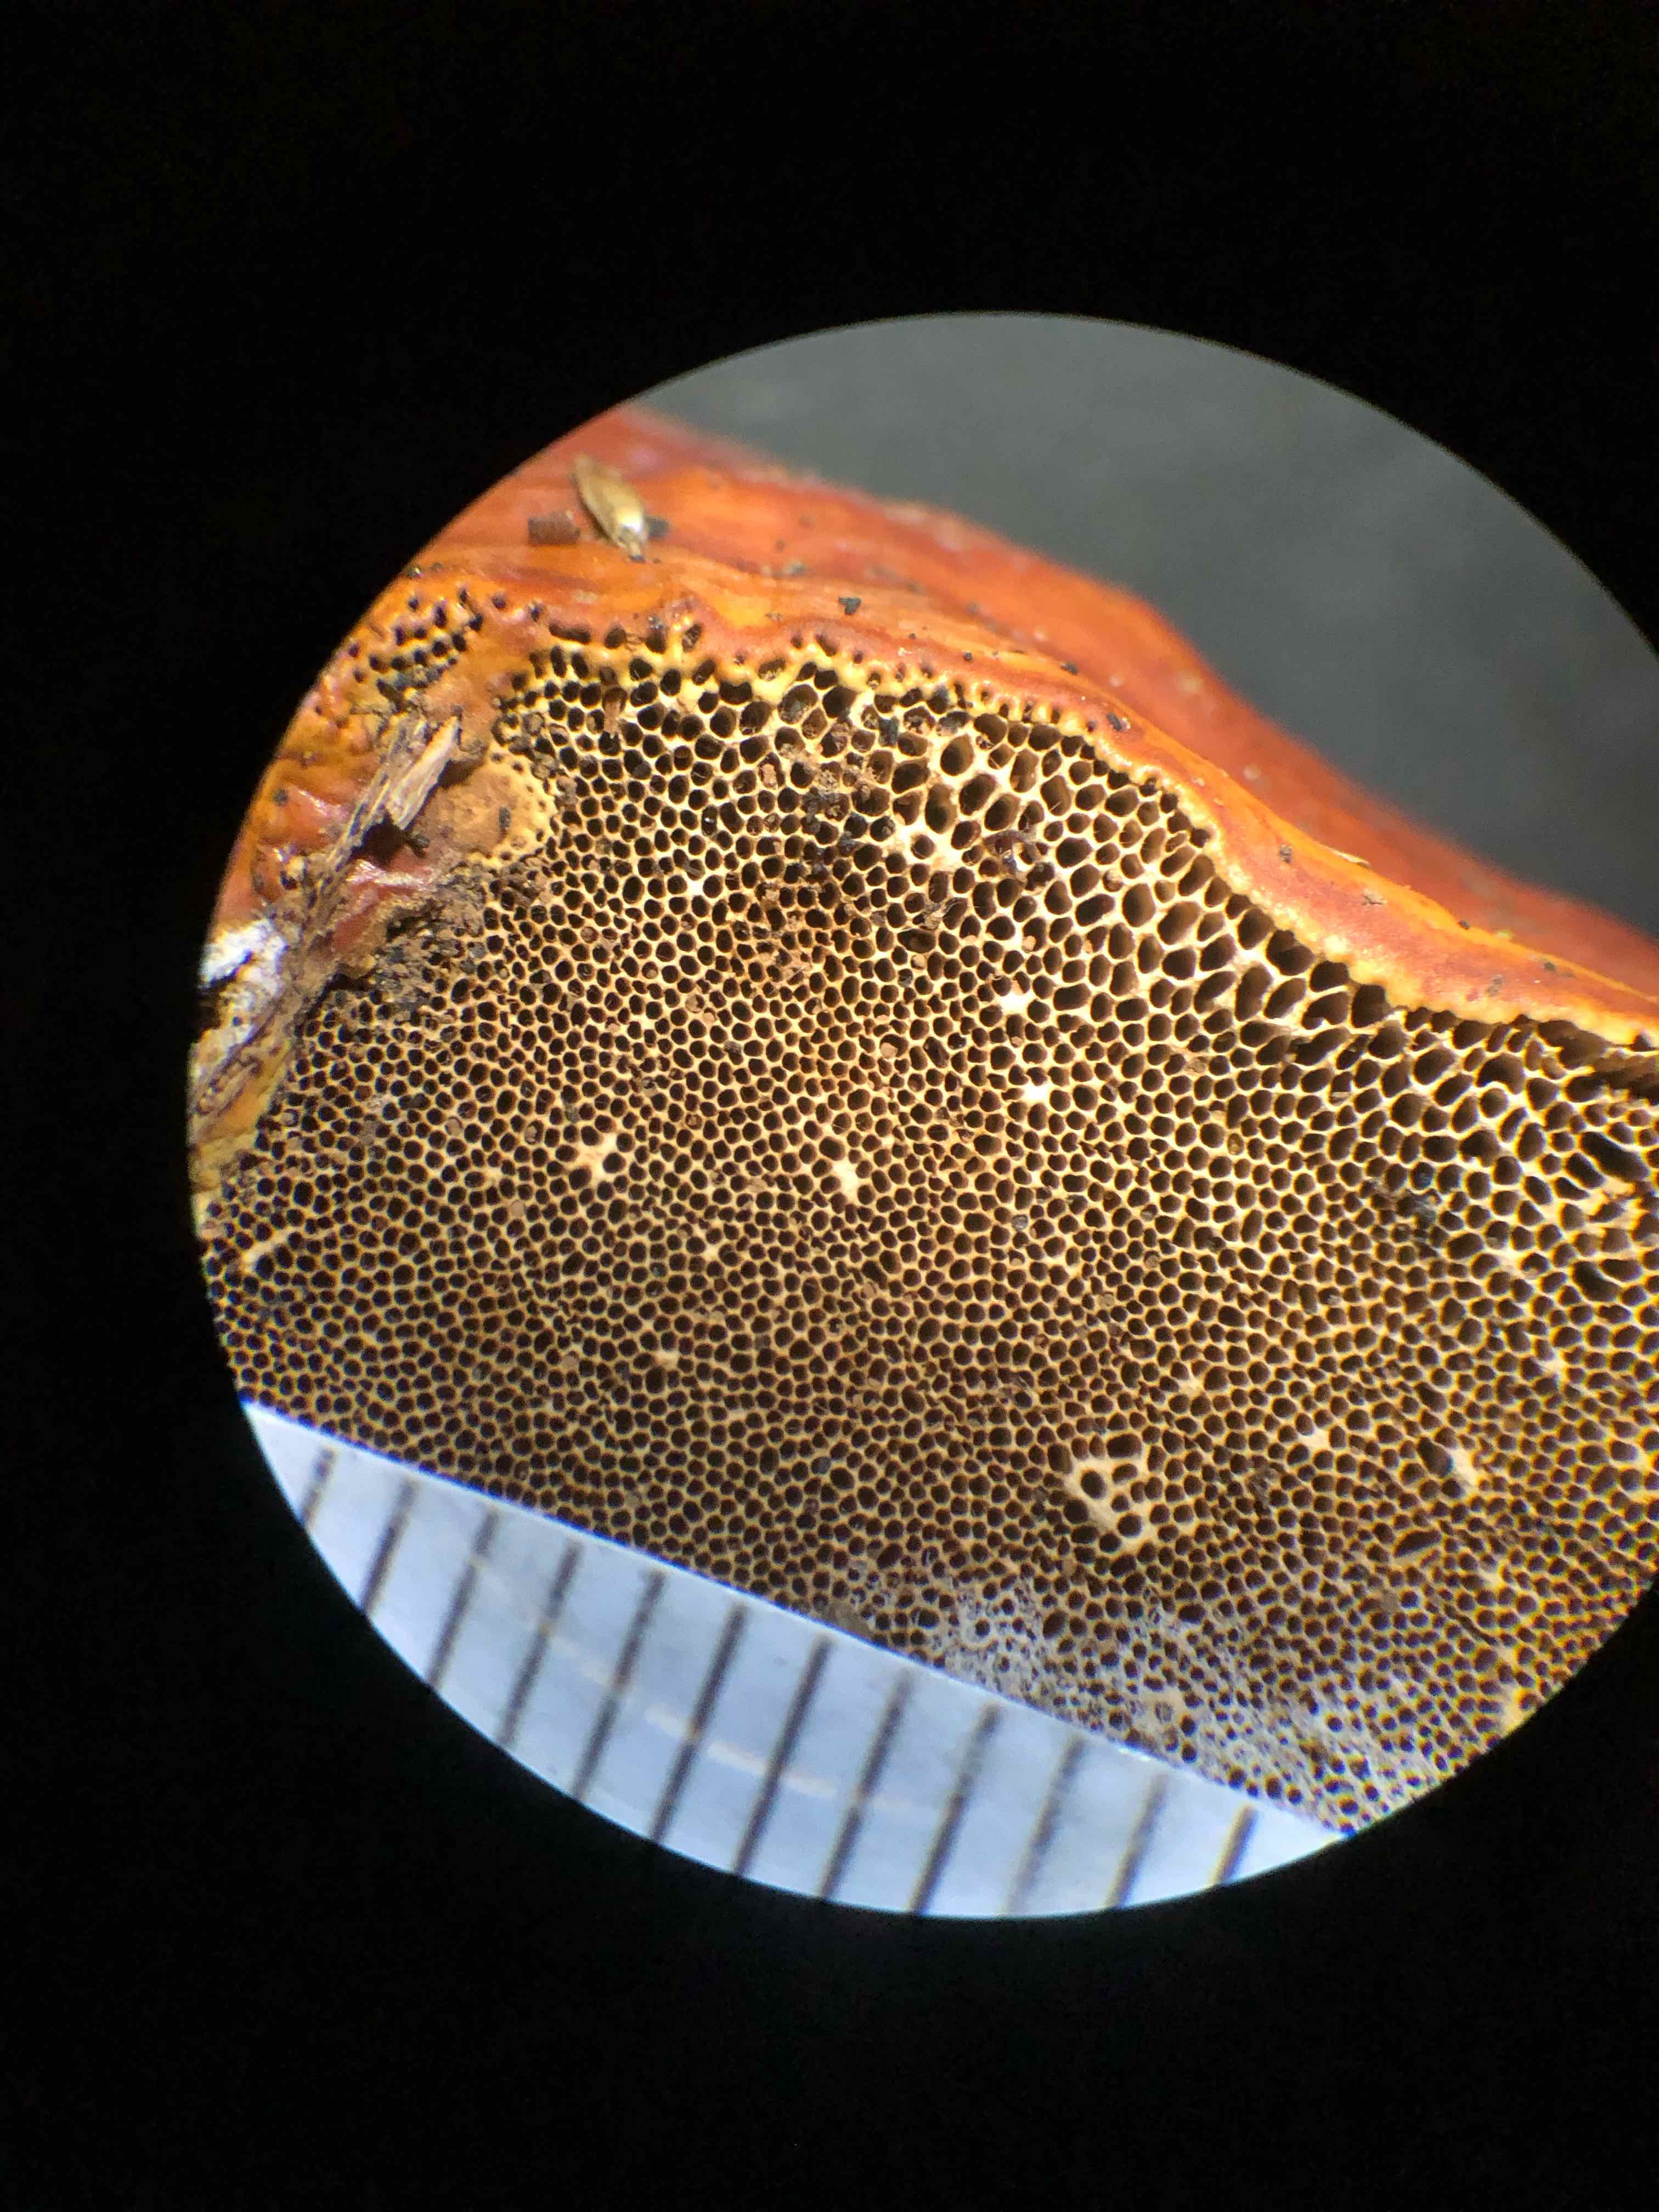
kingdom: Fungi
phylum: Basidiomycota
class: Agaricomycetes
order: Polyporales
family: Polyporaceae
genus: Ganoderma
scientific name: Ganoderma lucidum
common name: skinnende lakporesvamp
